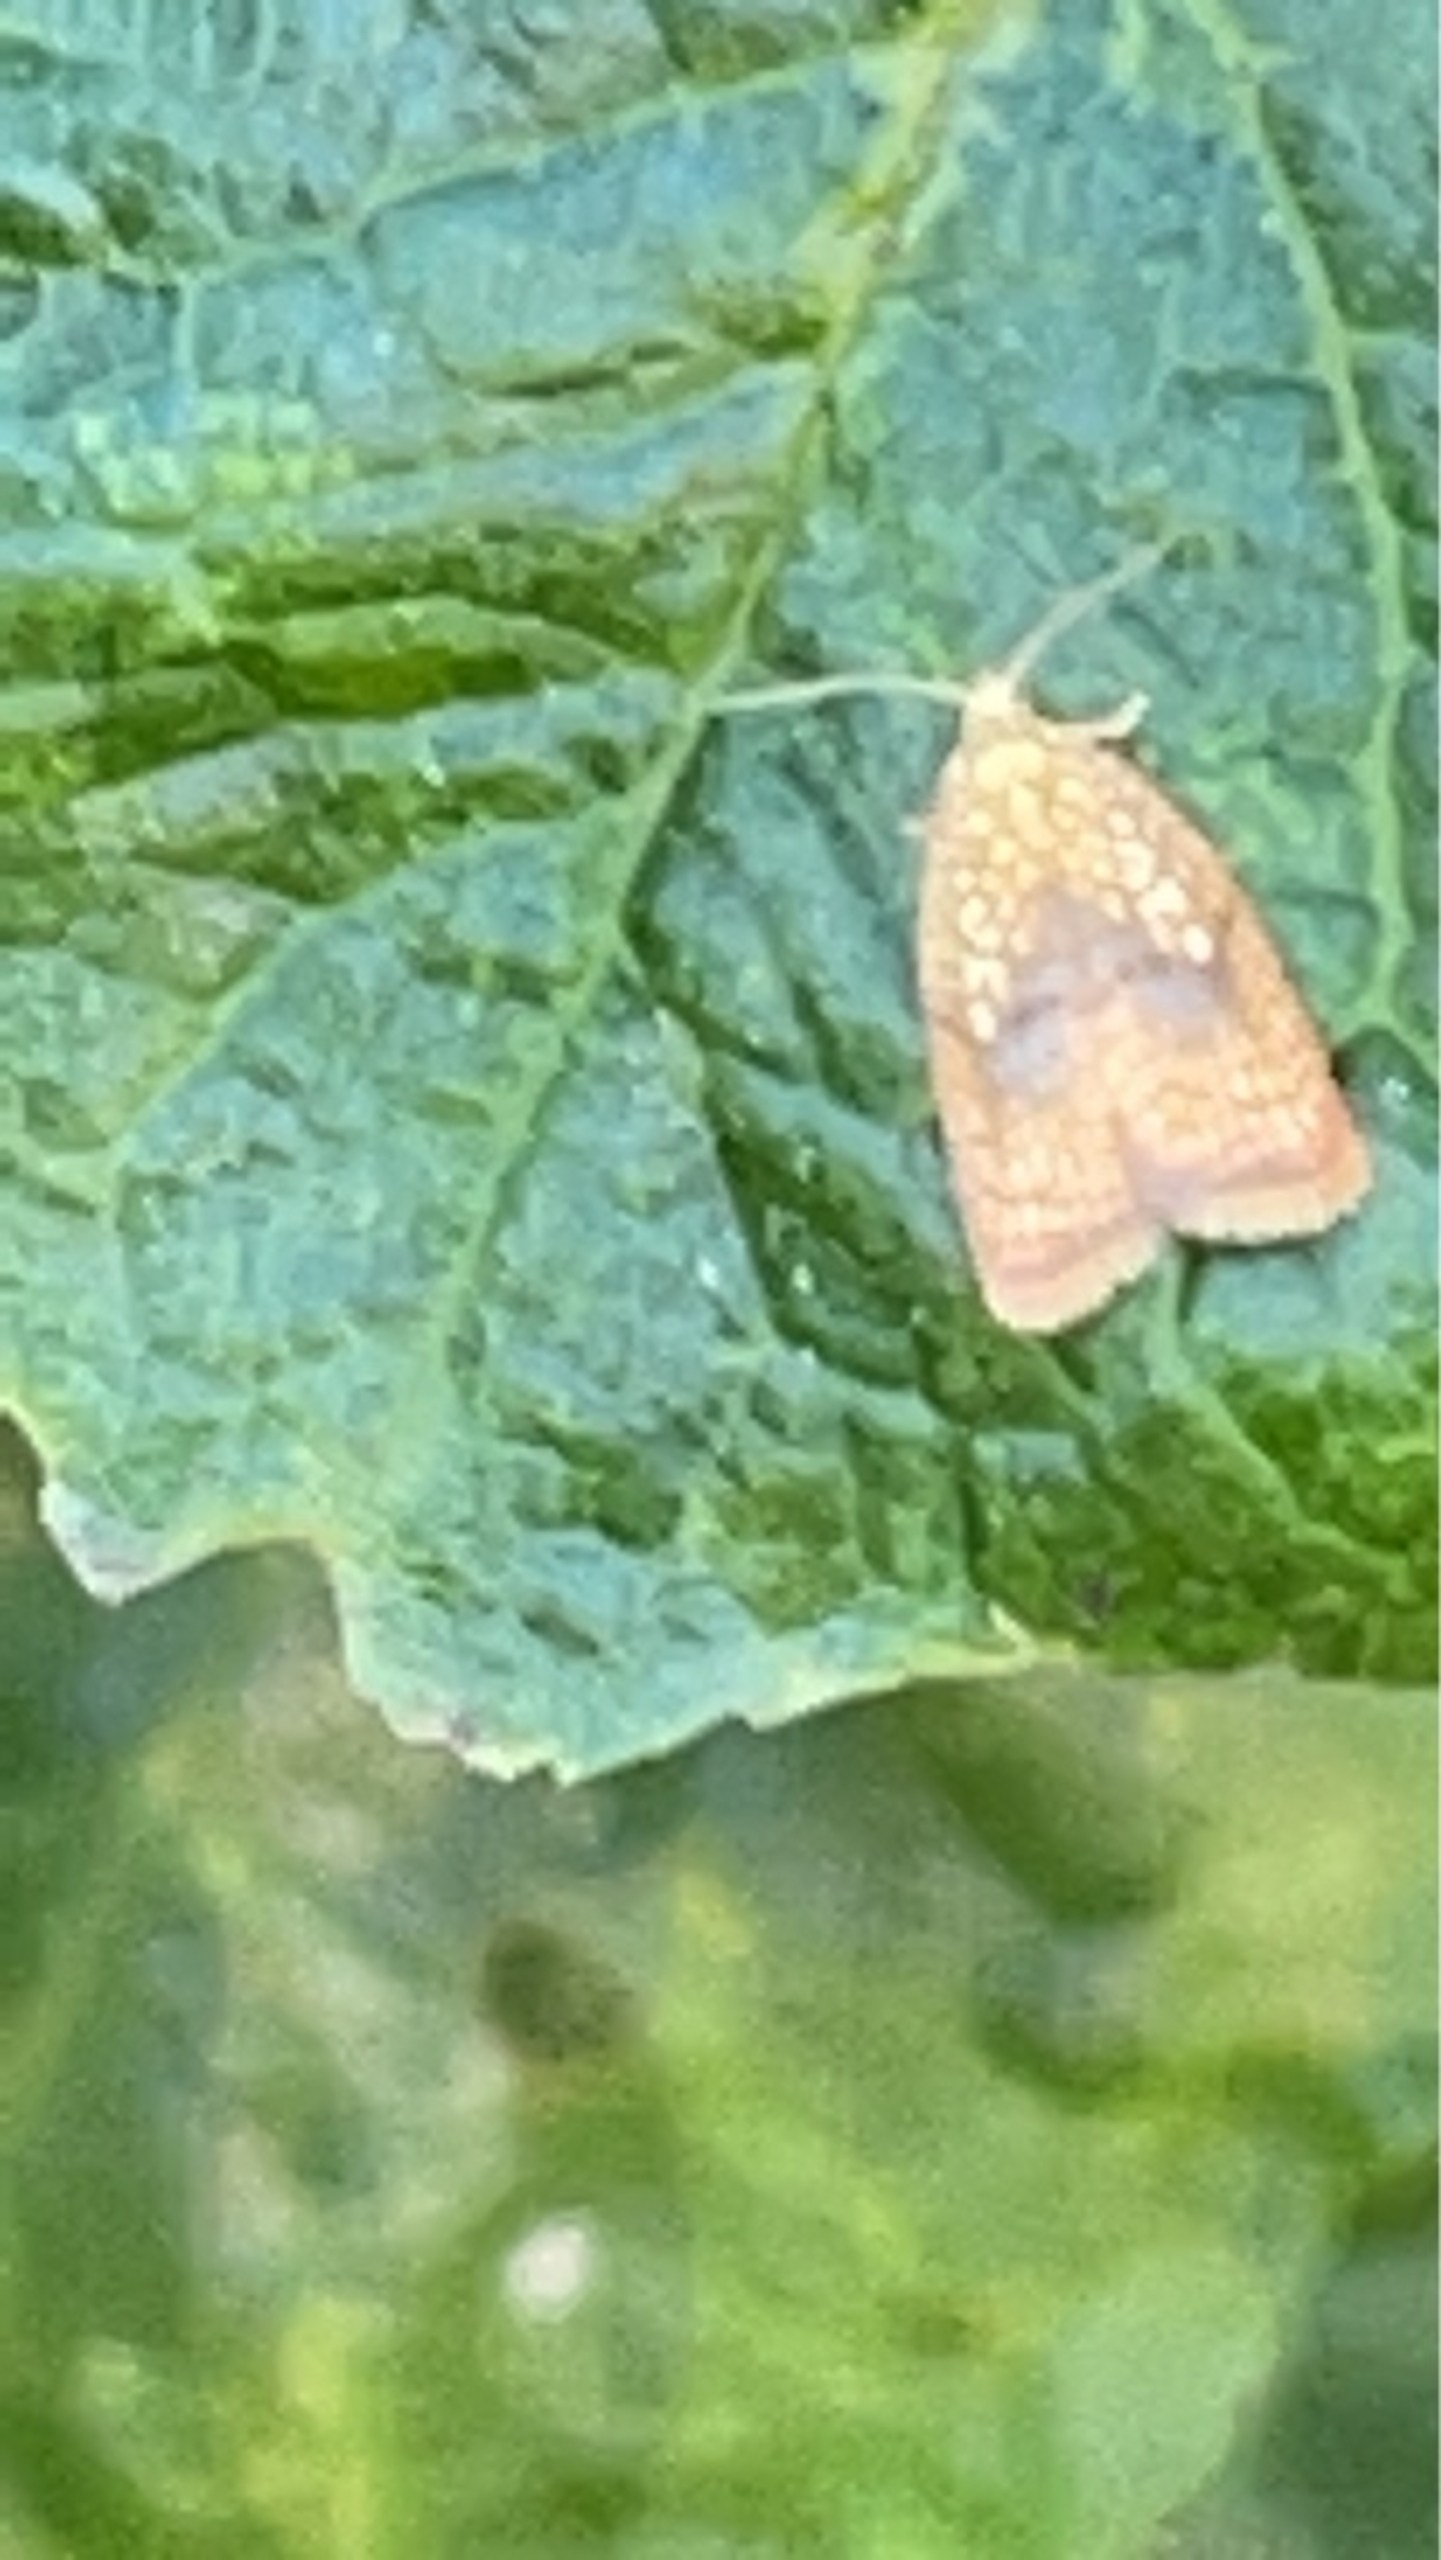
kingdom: Animalia
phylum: Arthropoda
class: Insecta
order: Lepidoptera
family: Tortricidae
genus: Acleris
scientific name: Acleris forsskaleana
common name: Gul ahornvikler
